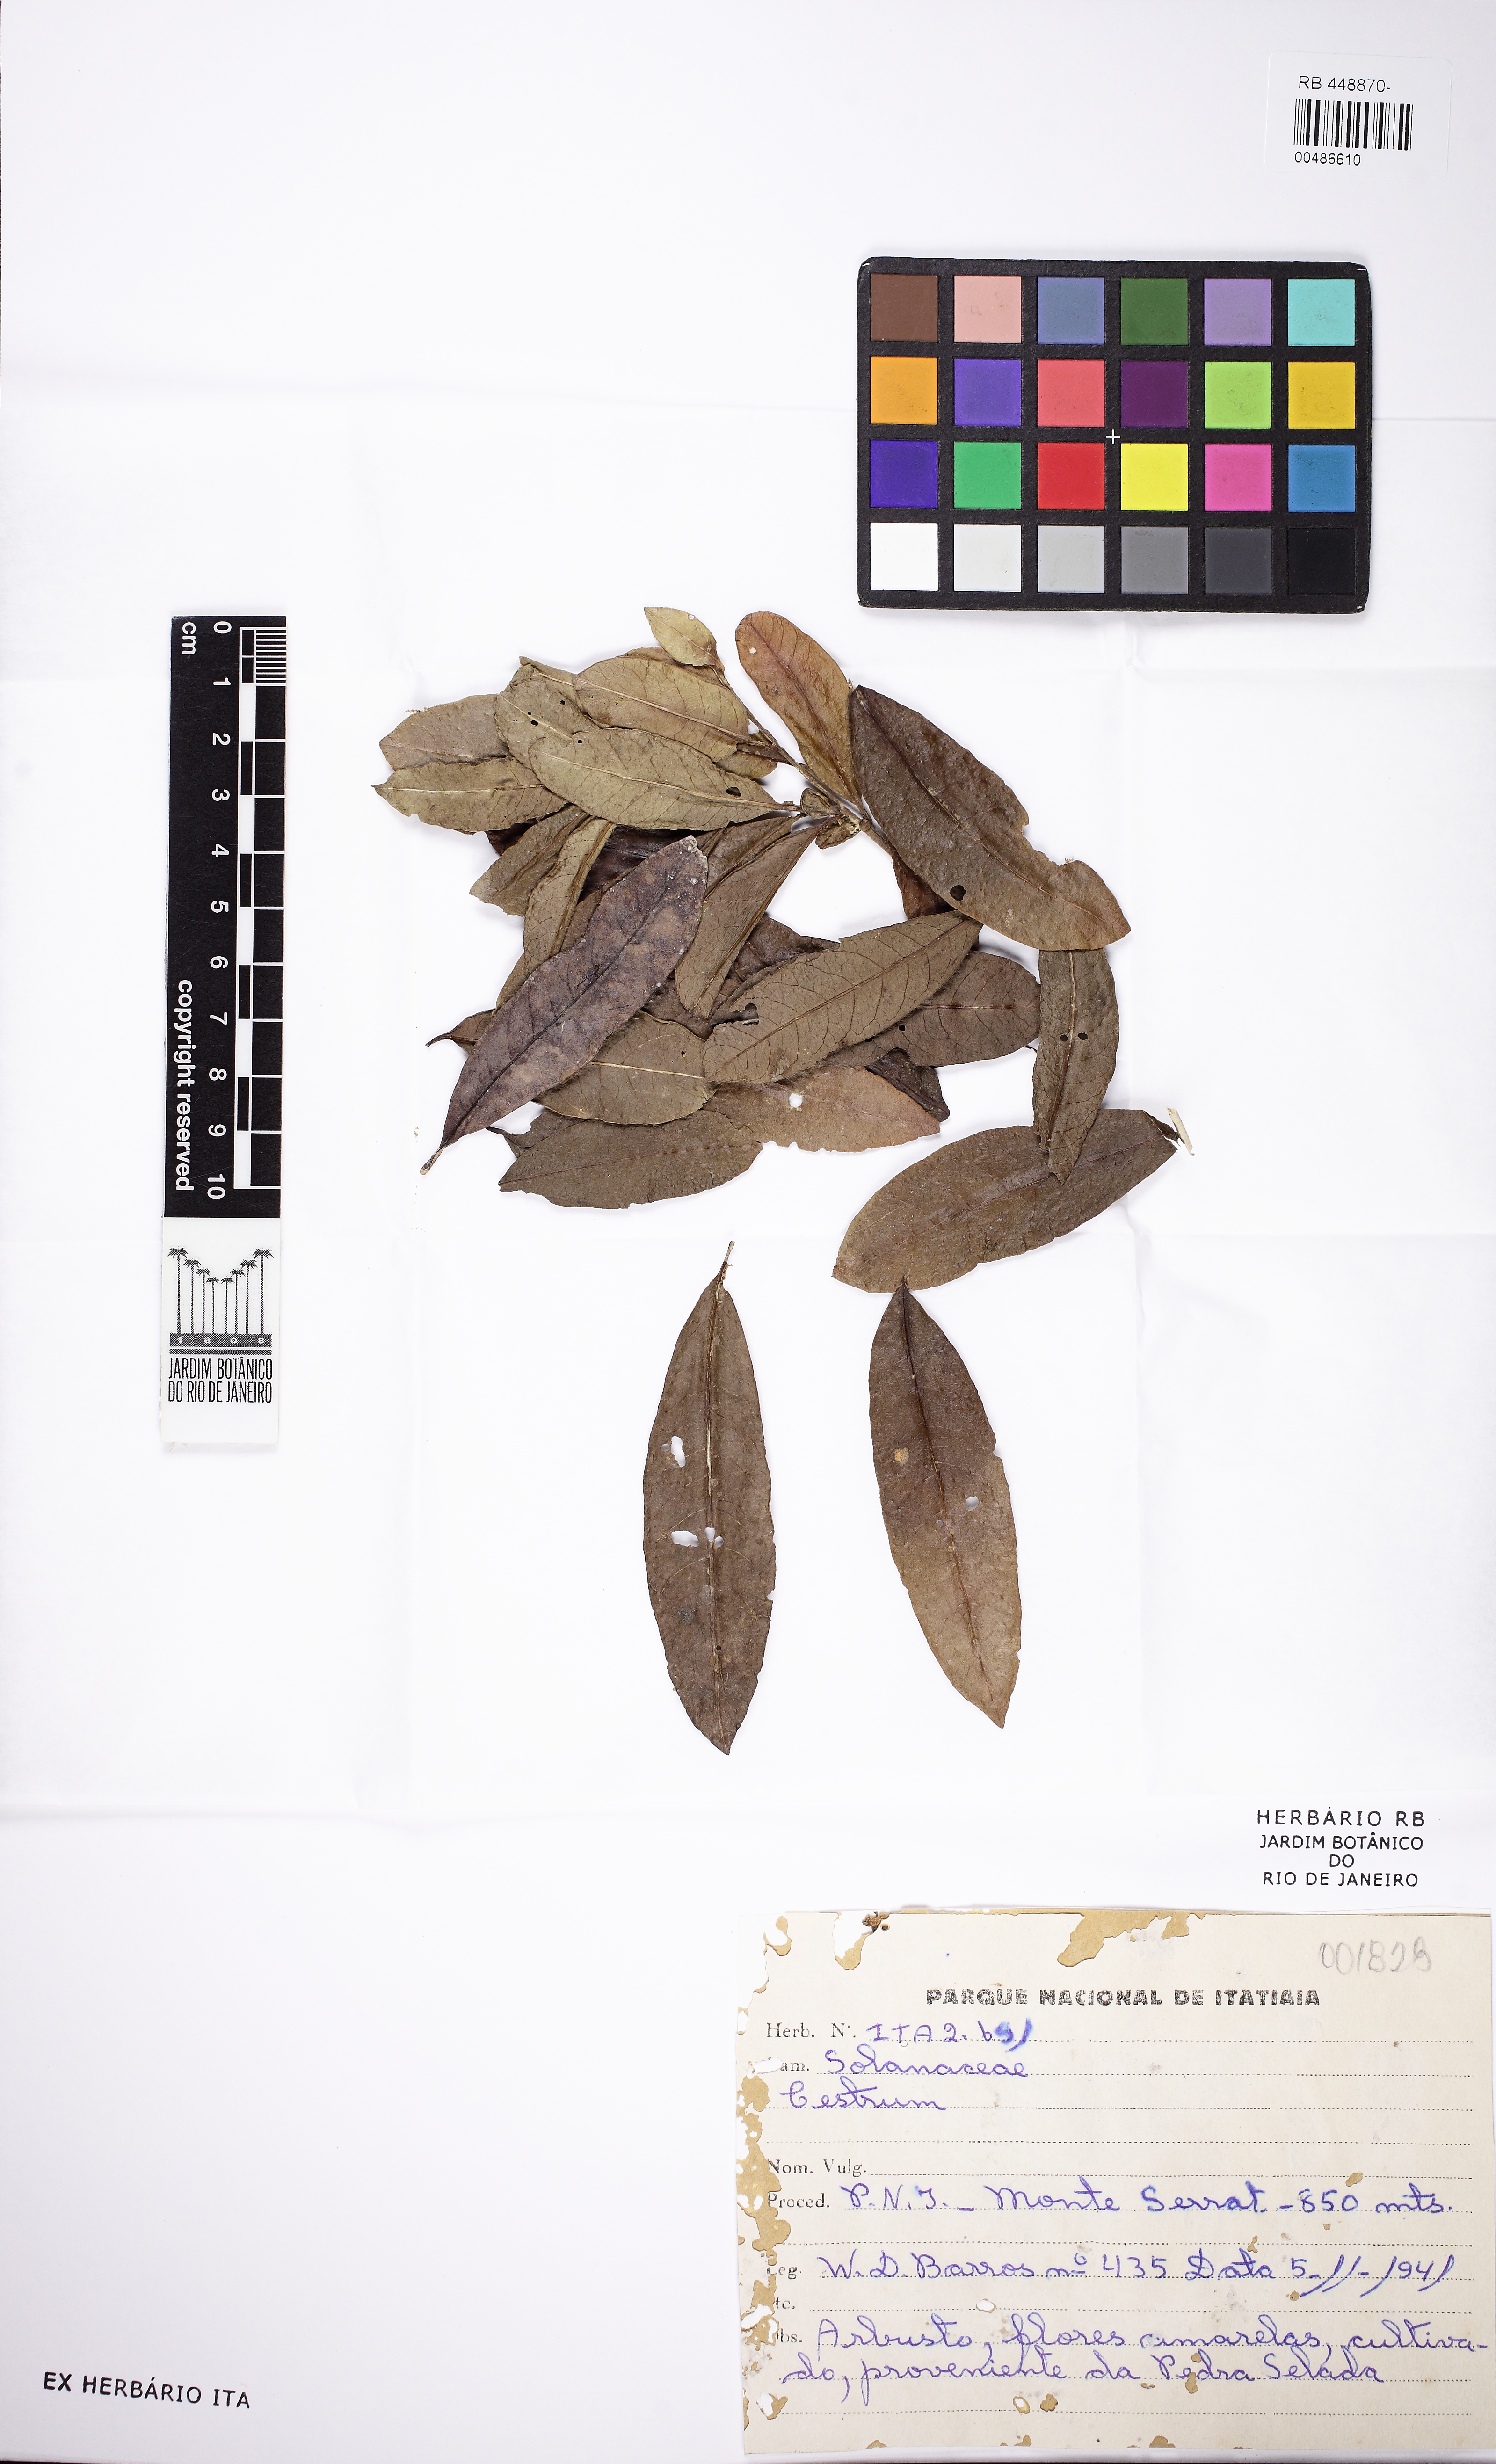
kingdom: Plantae
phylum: Tracheophyta
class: Magnoliopsida
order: Solanales
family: Solanaceae
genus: Cestrum
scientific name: Cestrum
